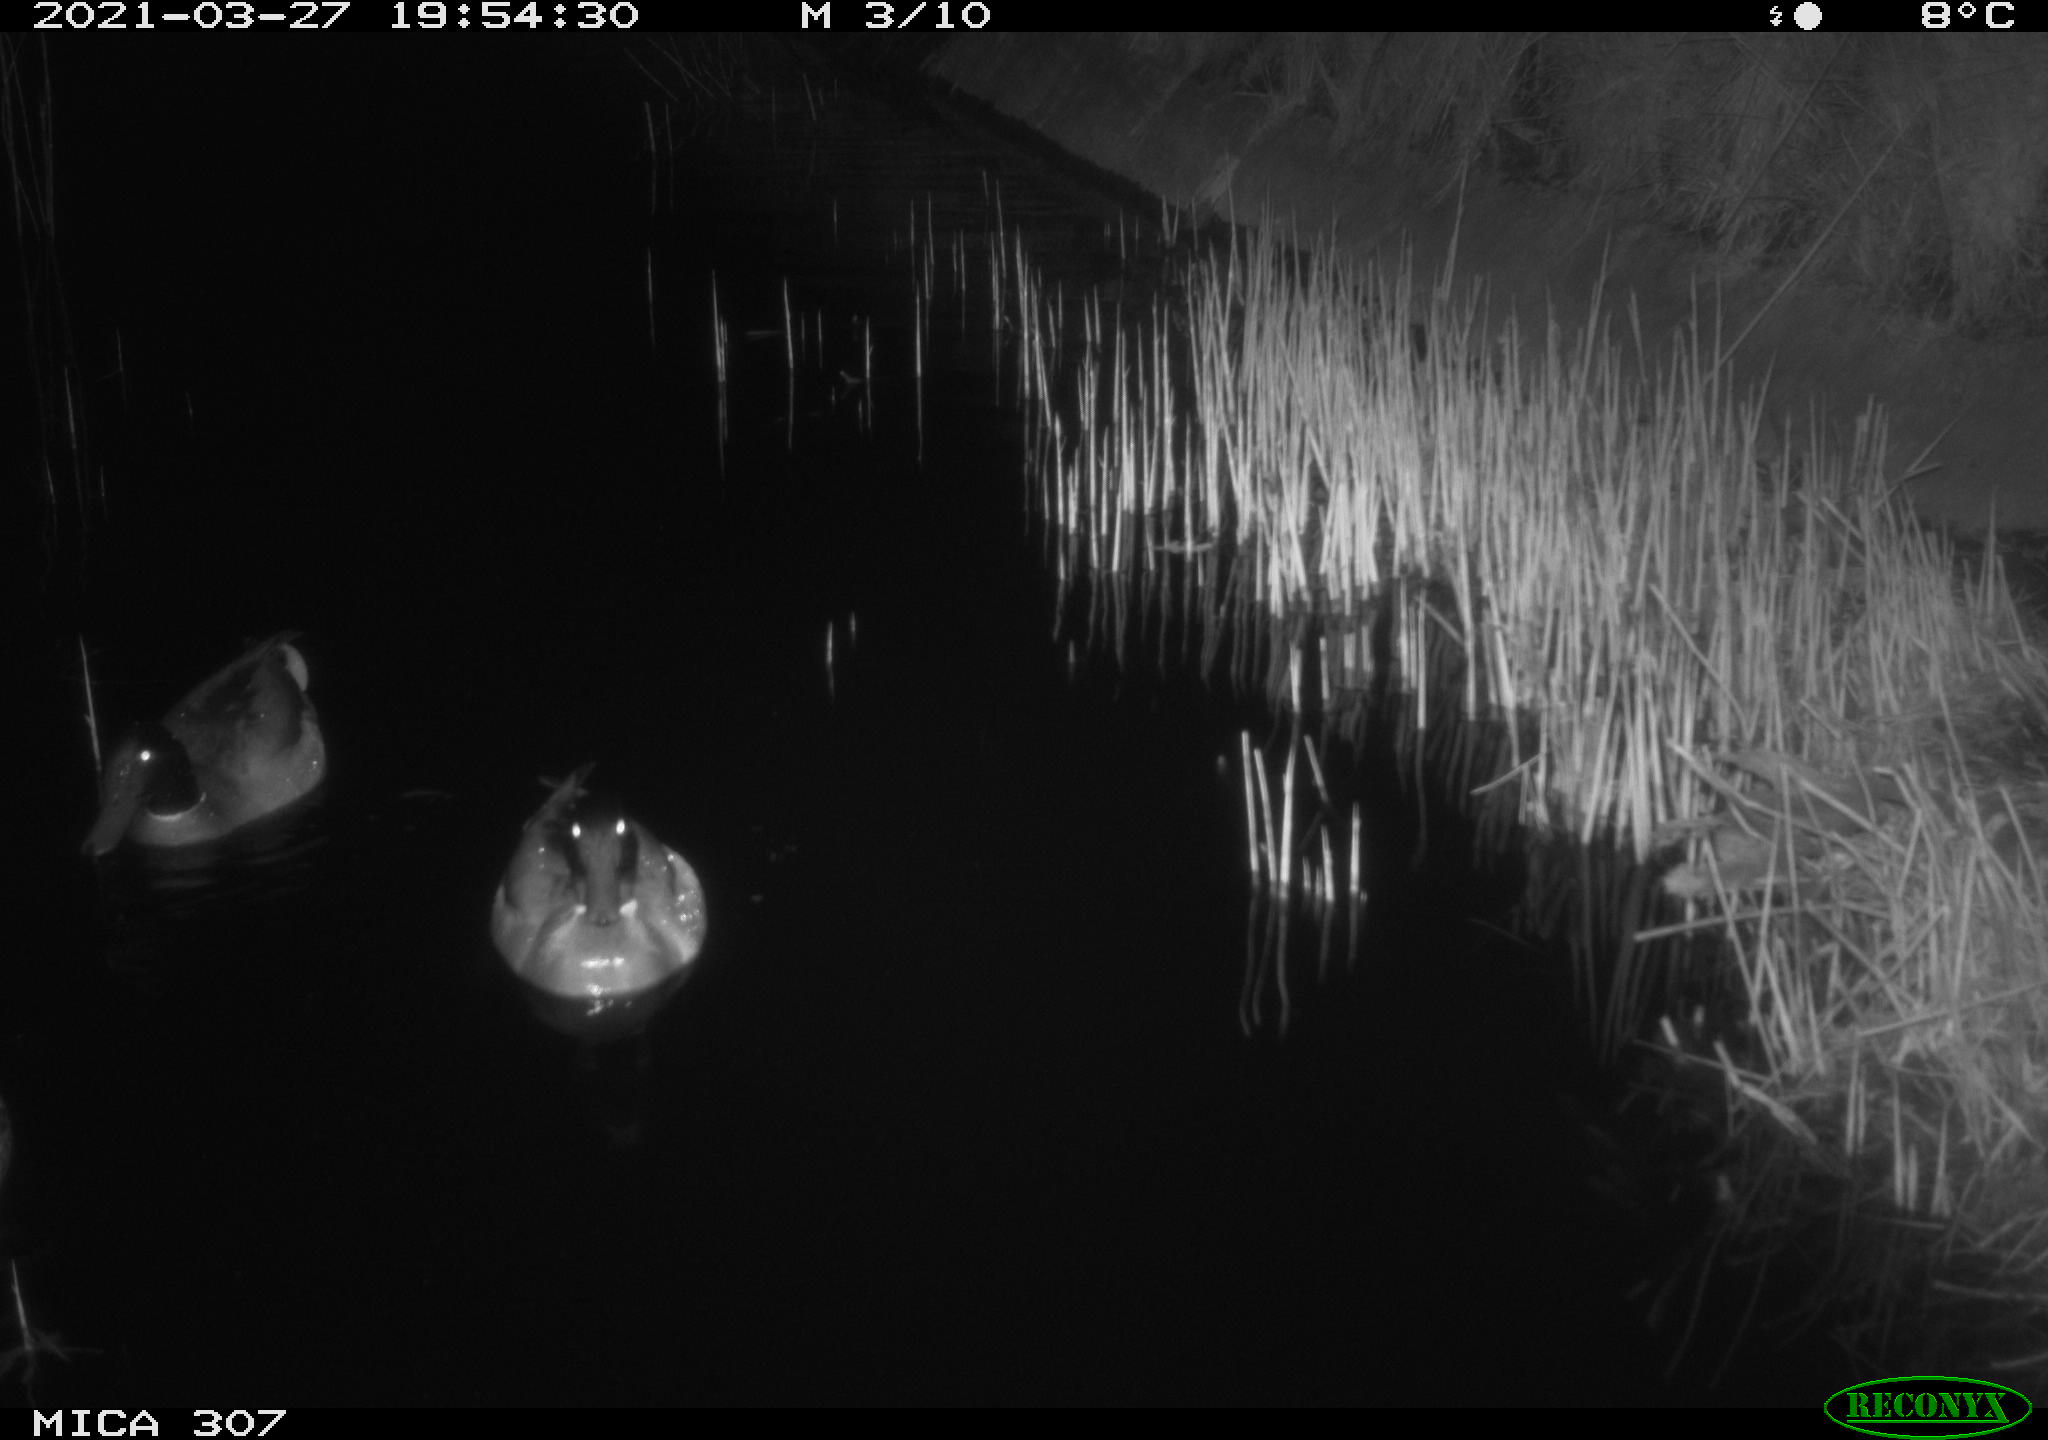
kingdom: Animalia
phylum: Chordata
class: Aves
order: Gruiformes
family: Rallidae
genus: Gallinula
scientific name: Gallinula chloropus
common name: Common moorhen
